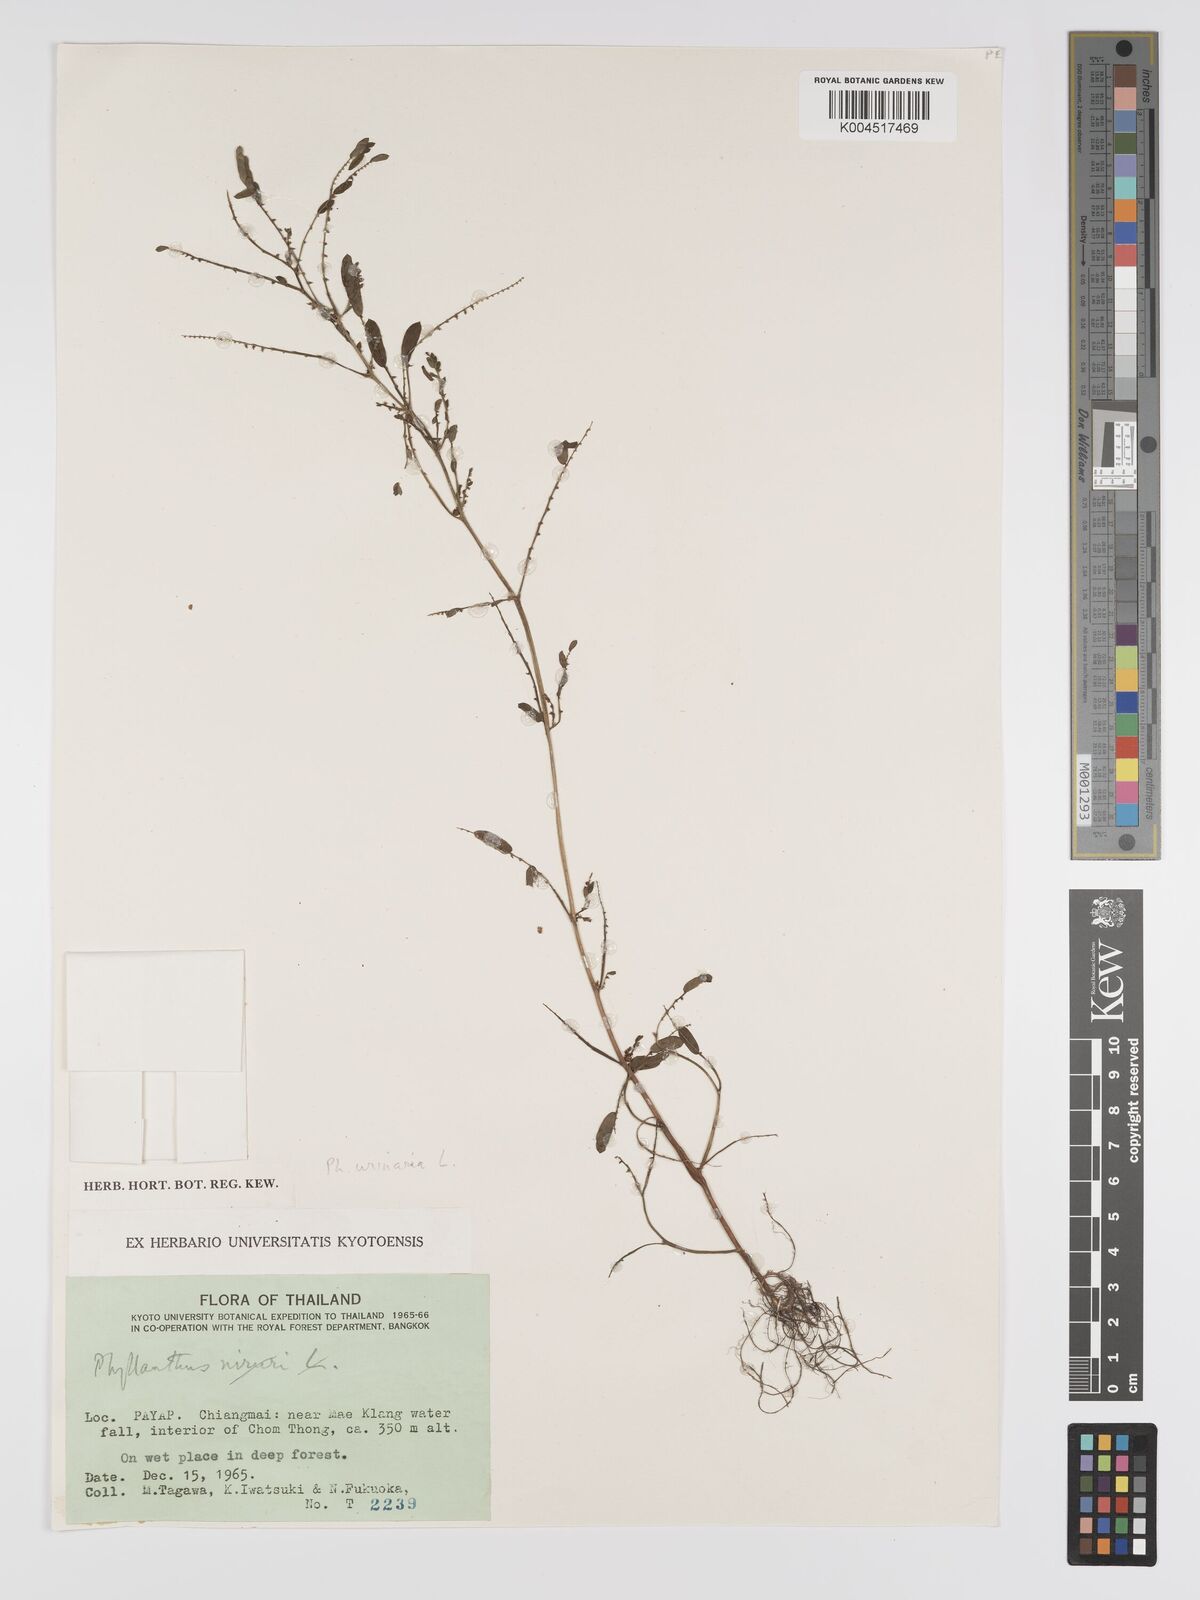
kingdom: Plantae
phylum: Tracheophyta
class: Magnoliopsida
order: Malpighiales
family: Phyllanthaceae
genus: Phyllanthus
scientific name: Phyllanthus urinaria
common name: Chamber bitter
